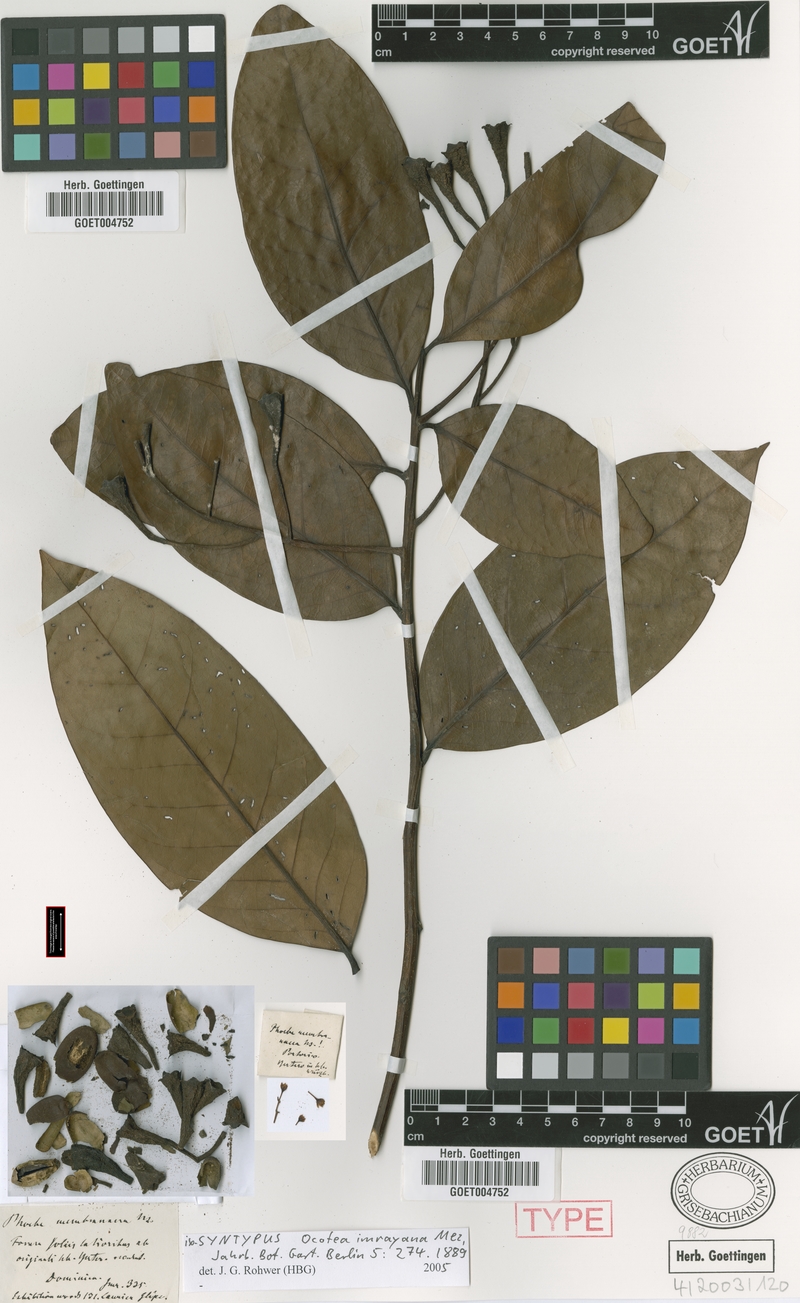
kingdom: Plantae
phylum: Tracheophyta
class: Magnoliopsida
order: Laurales
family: Lauraceae
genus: Ocotea
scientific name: Ocotea imrayana
